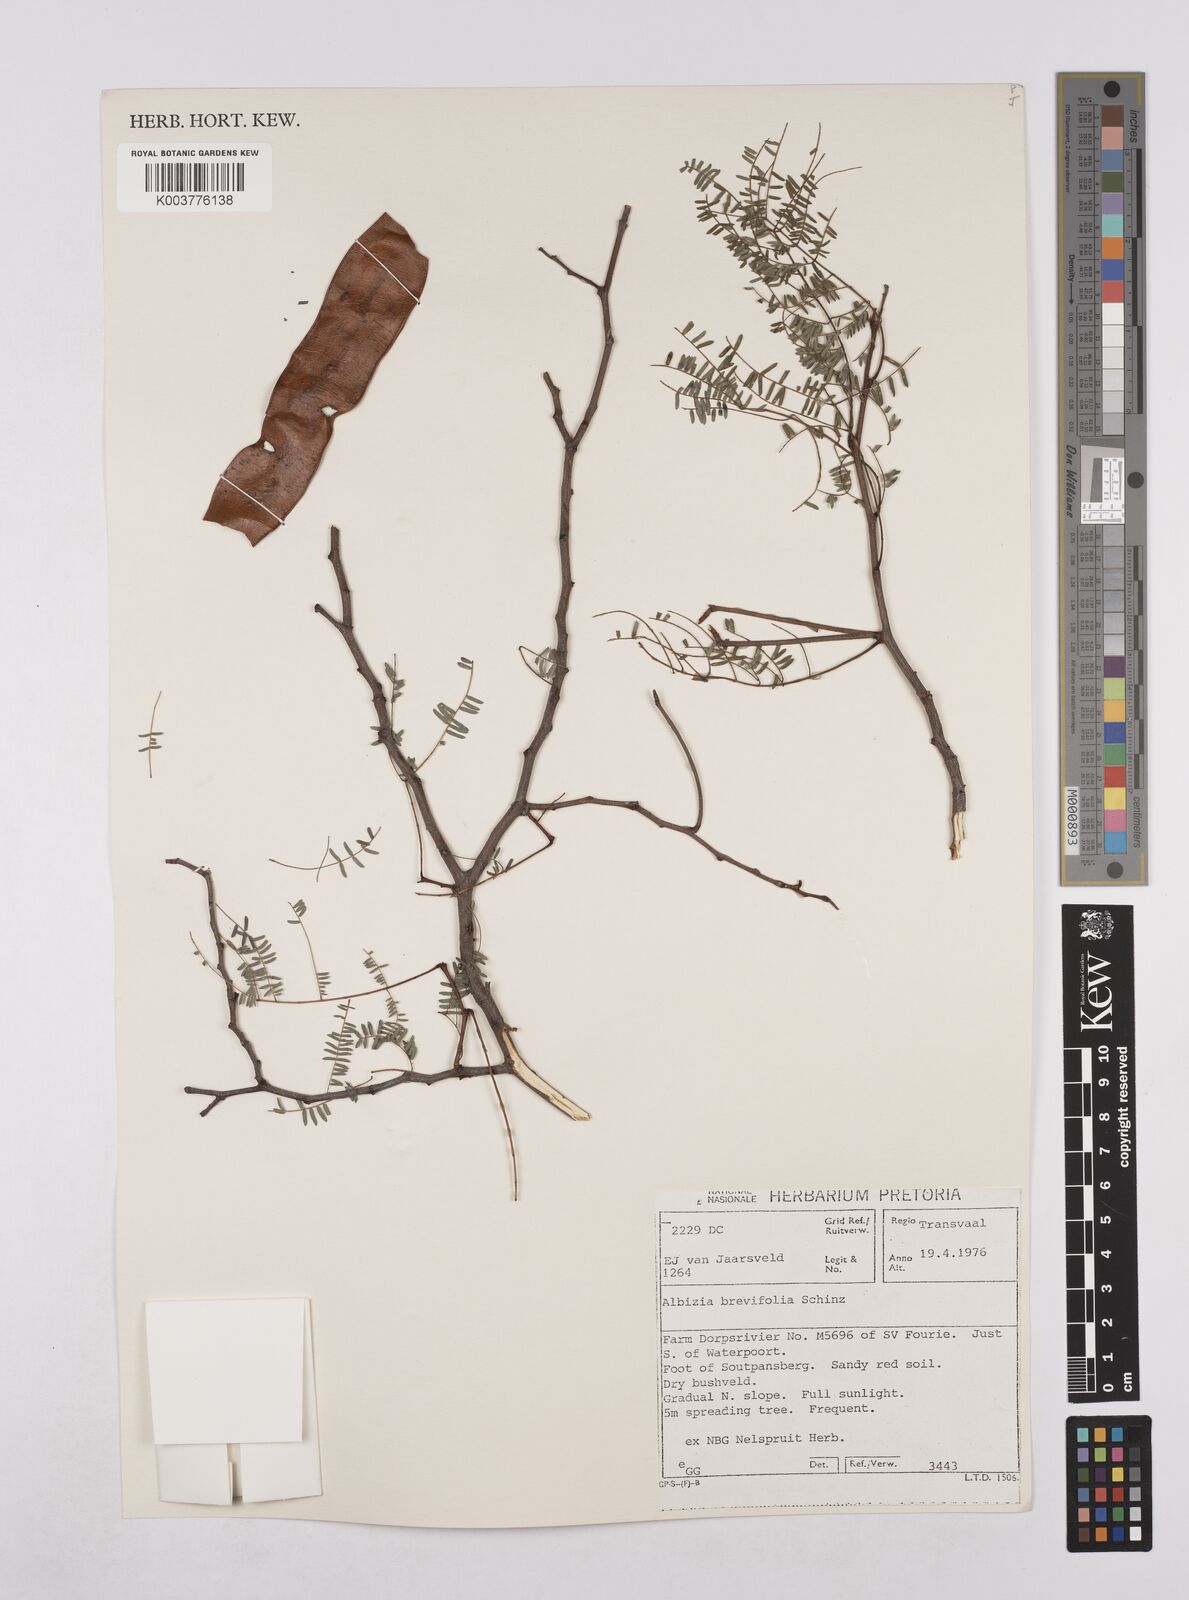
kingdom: Plantae
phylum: Tracheophyta
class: Magnoliopsida
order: Fabales
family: Fabaceae
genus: Albizia
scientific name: Albizia brevifolia
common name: Rock false-thorn
